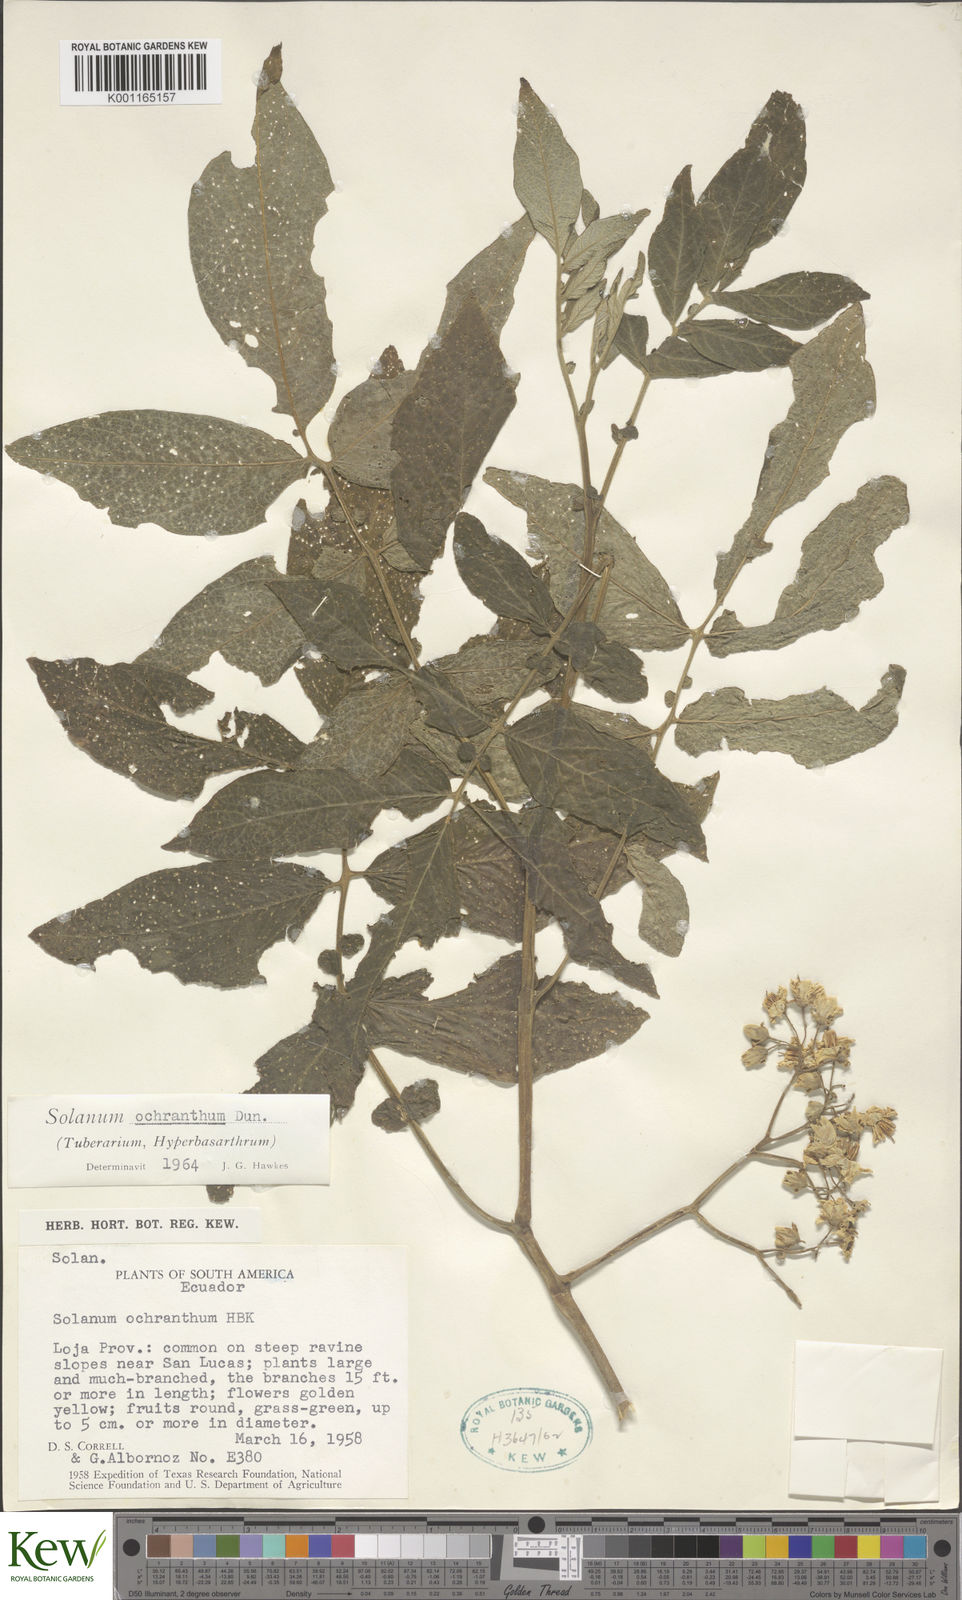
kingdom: Plantae
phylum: Tracheophyta
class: Magnoliopsida
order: Solanales
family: Solanaceae
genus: Solanum
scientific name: Solanum ochranthum
